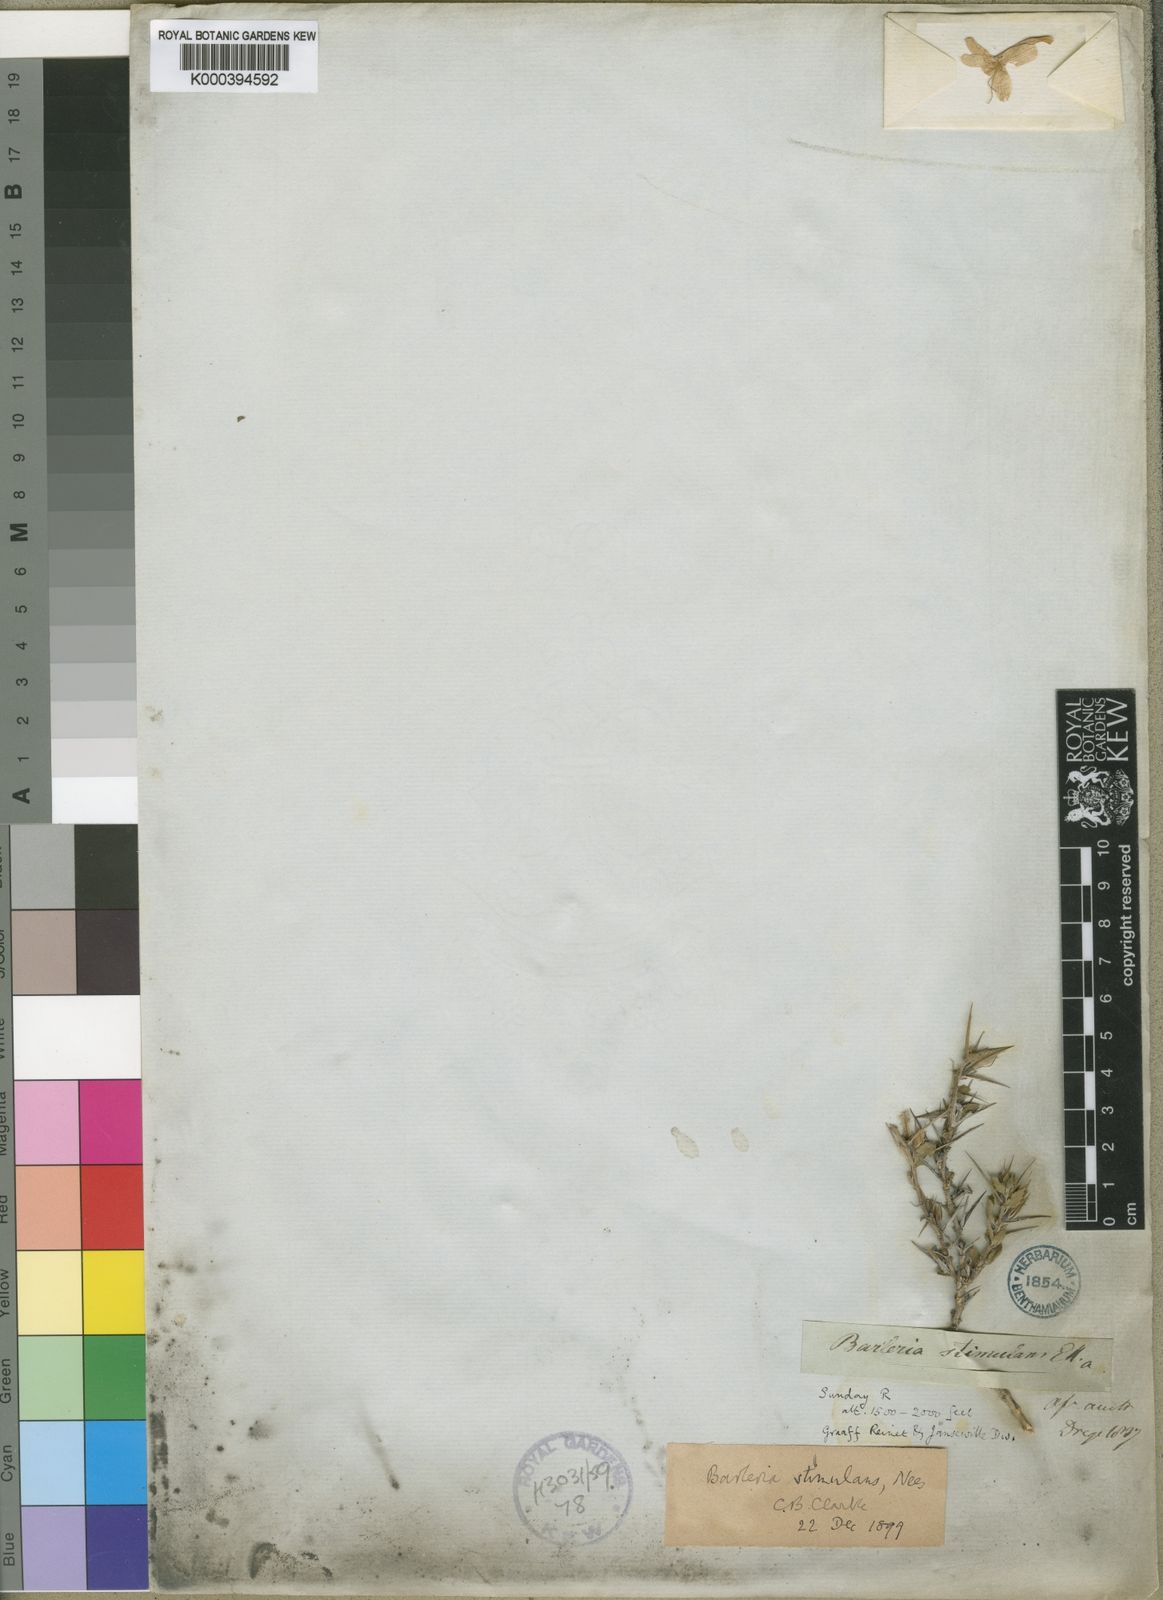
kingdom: Plantae
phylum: Tracheophyta
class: Magnoliopsida
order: Lamiales
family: Acanthaceae
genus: Barleria
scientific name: Barleria stimulans
